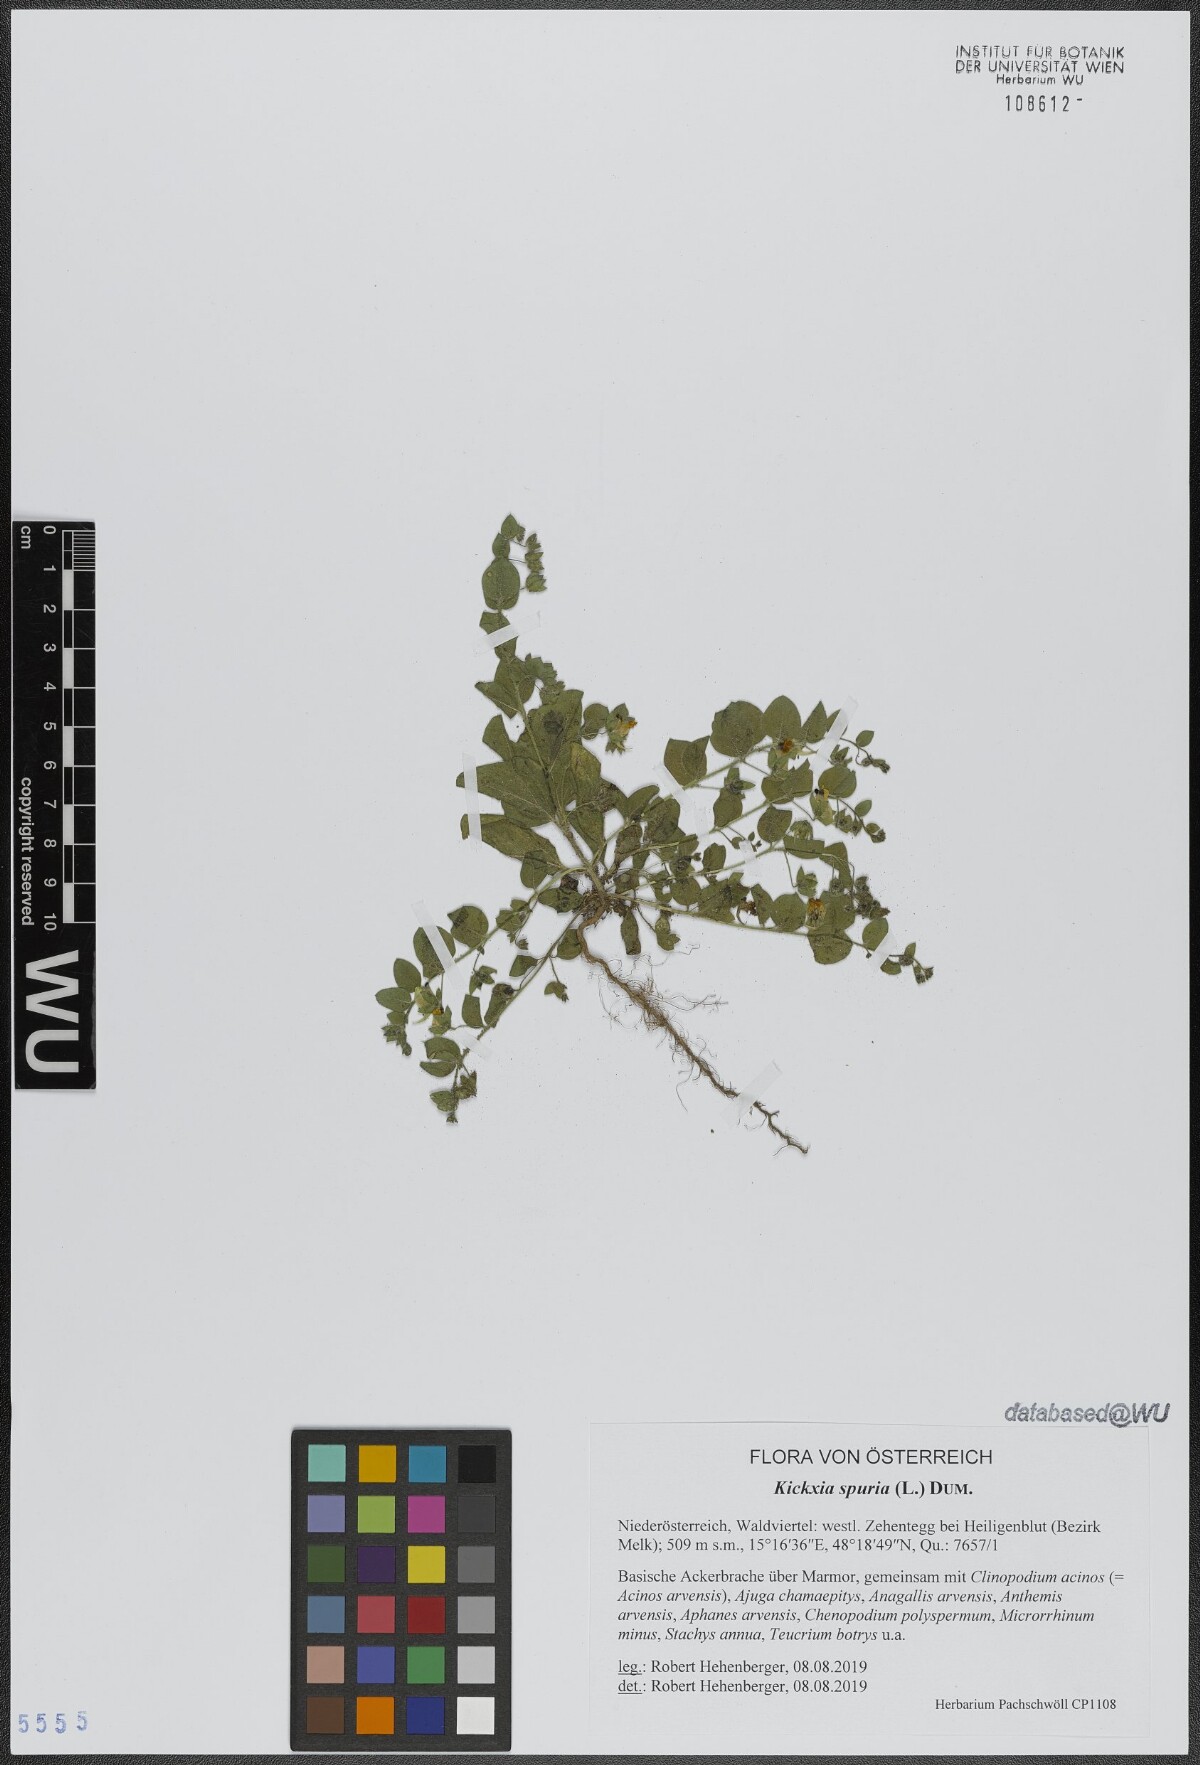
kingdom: Plantae
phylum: Tracheophyta
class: Magnoliopsida
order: Lamiales
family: Plantaginaceae
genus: Kickxia
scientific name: Kickxia spuria
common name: Round-leaved fluellen
